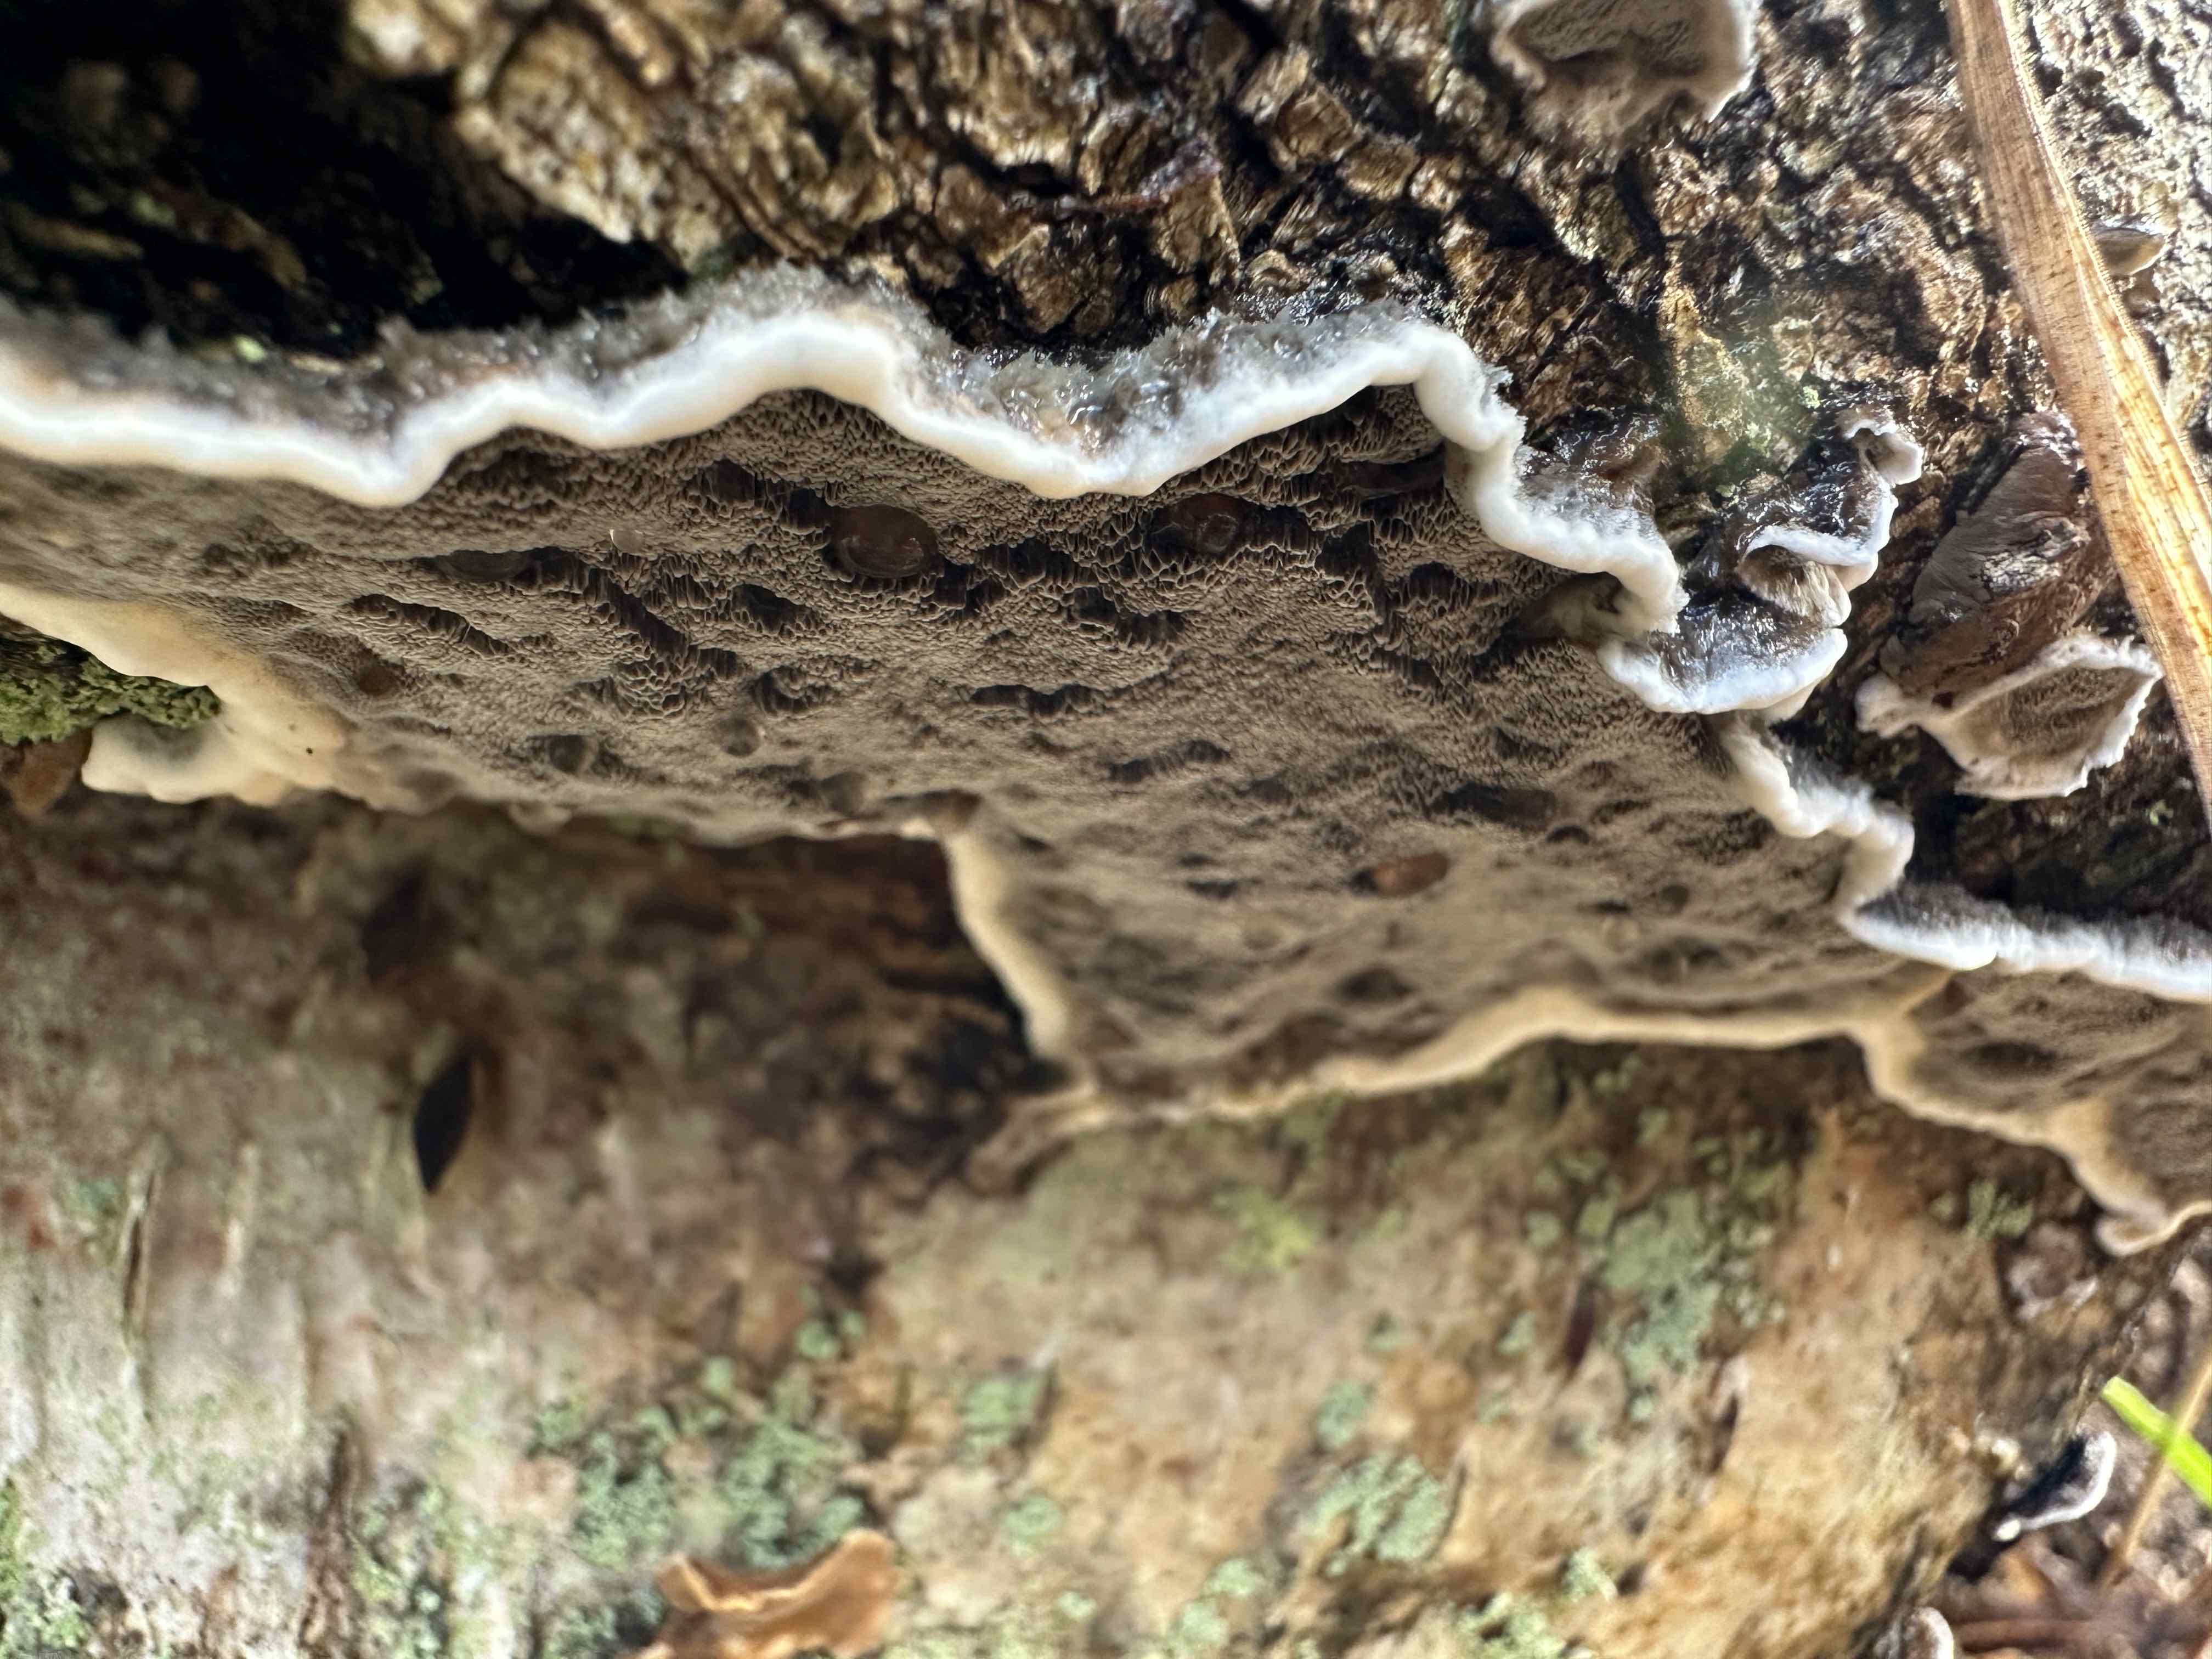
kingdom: Fungi
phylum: Basidiomycota
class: Agaricomycetes
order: Polyporales
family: Phanerochaetaceae
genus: Bjerkandera
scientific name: Bjerkandera adusta
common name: sveden sodporesvamp
